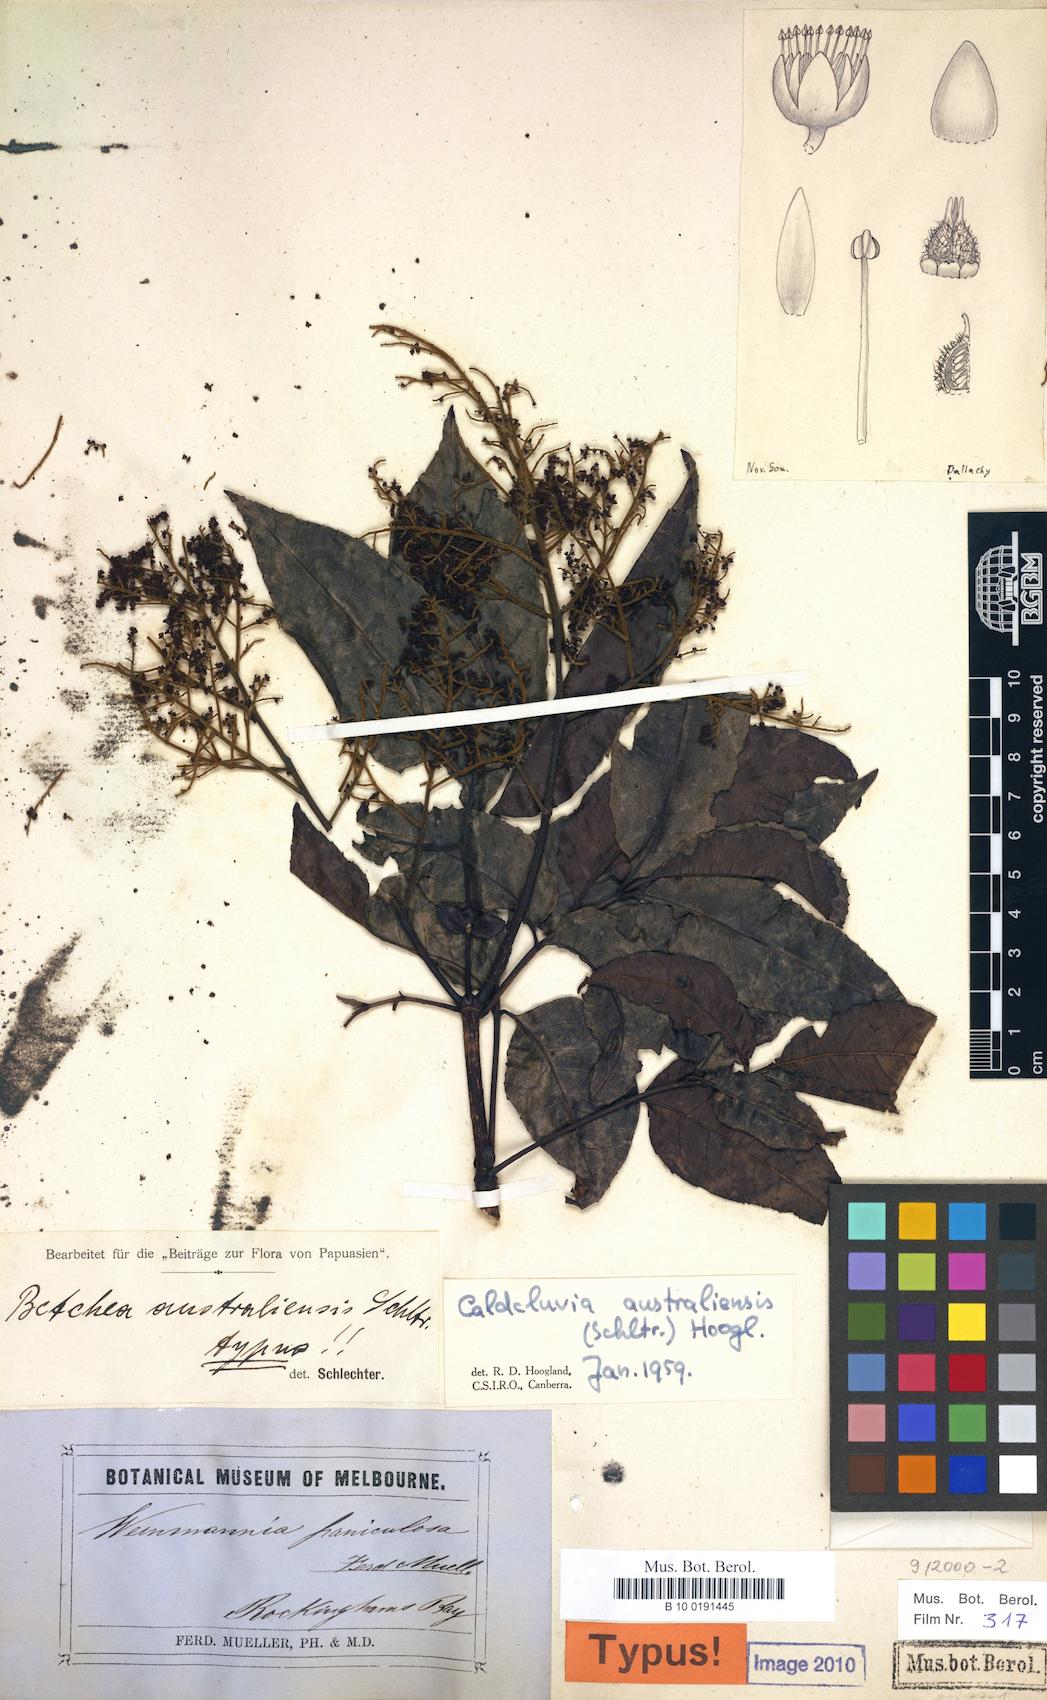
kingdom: Plantae
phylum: Tracheophyta
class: Magnoliopsida
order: Oxalidales
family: Cunoniaceae
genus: Ackama
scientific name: Ackama australiensis
